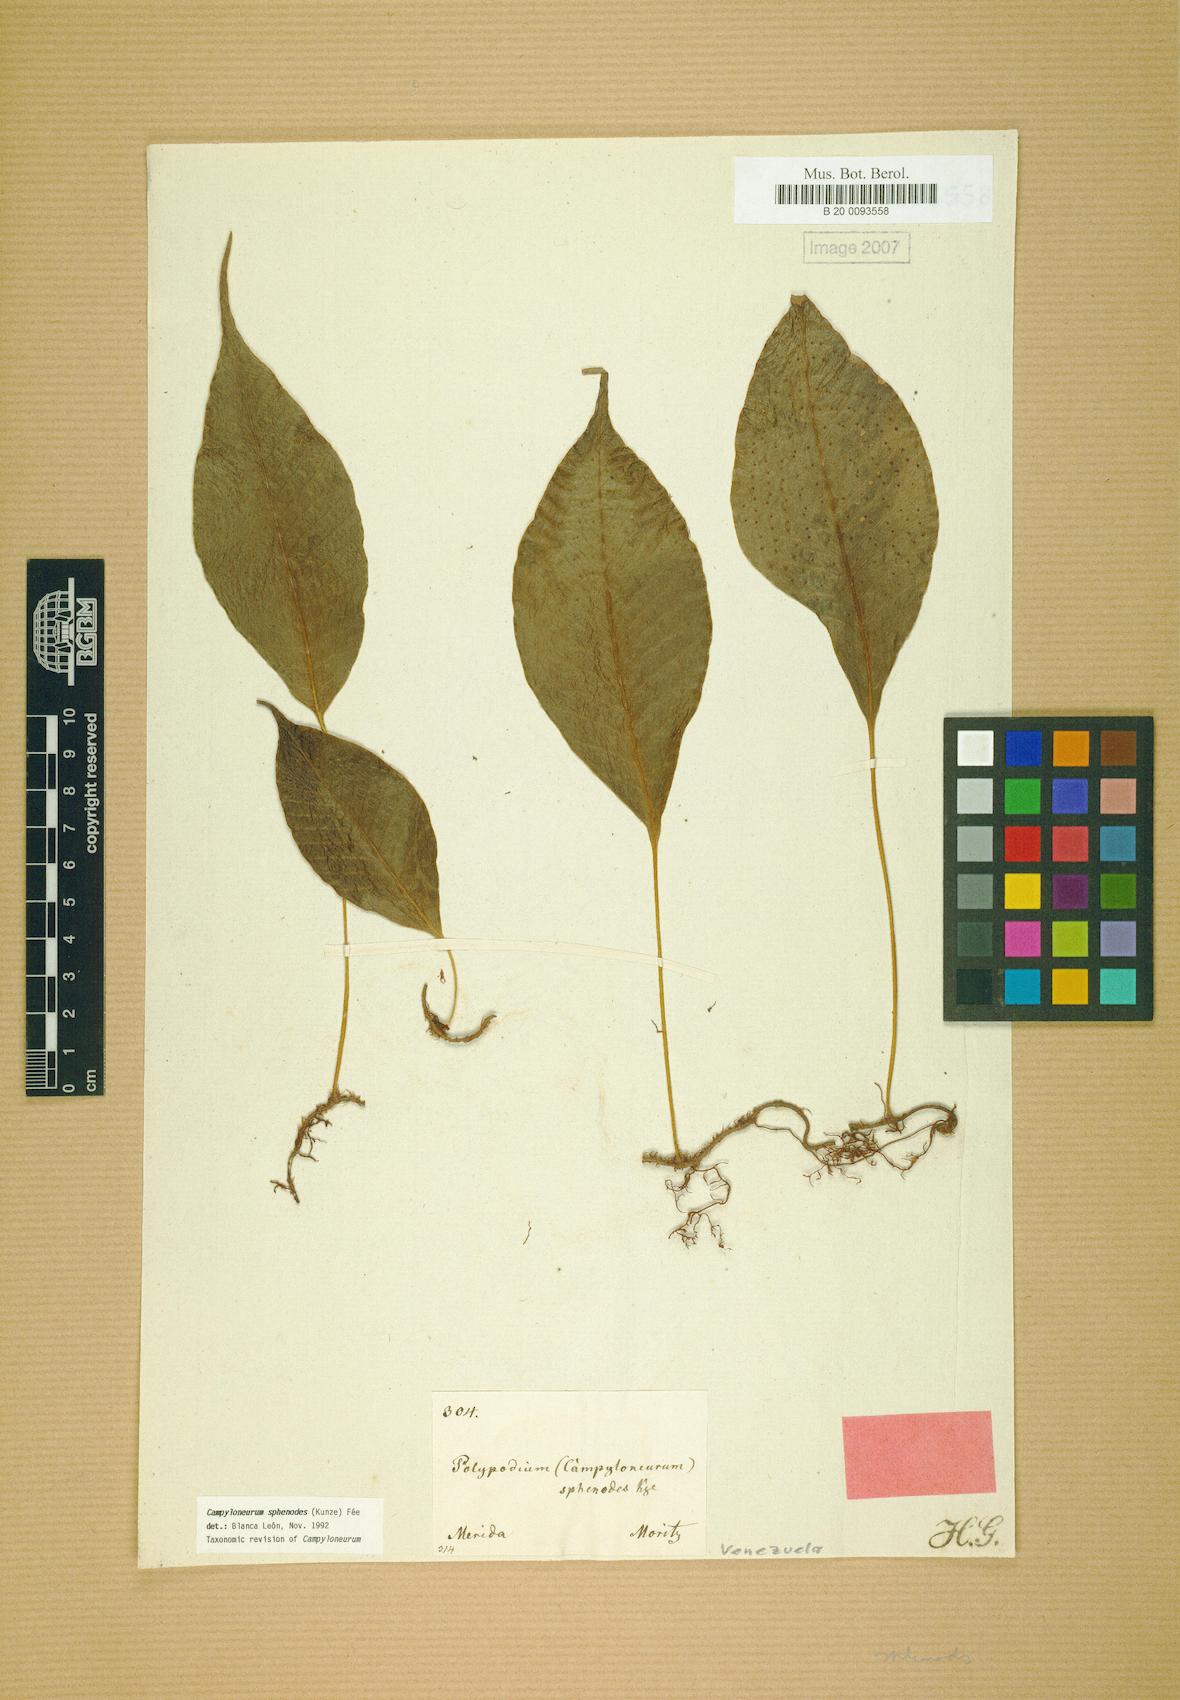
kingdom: Plantae
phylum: Tracheophyta
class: Polypodiopsida
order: Polypodiales
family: Polypodiaceae
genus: Campyloneurum
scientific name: Campyloneurum sphenodes
